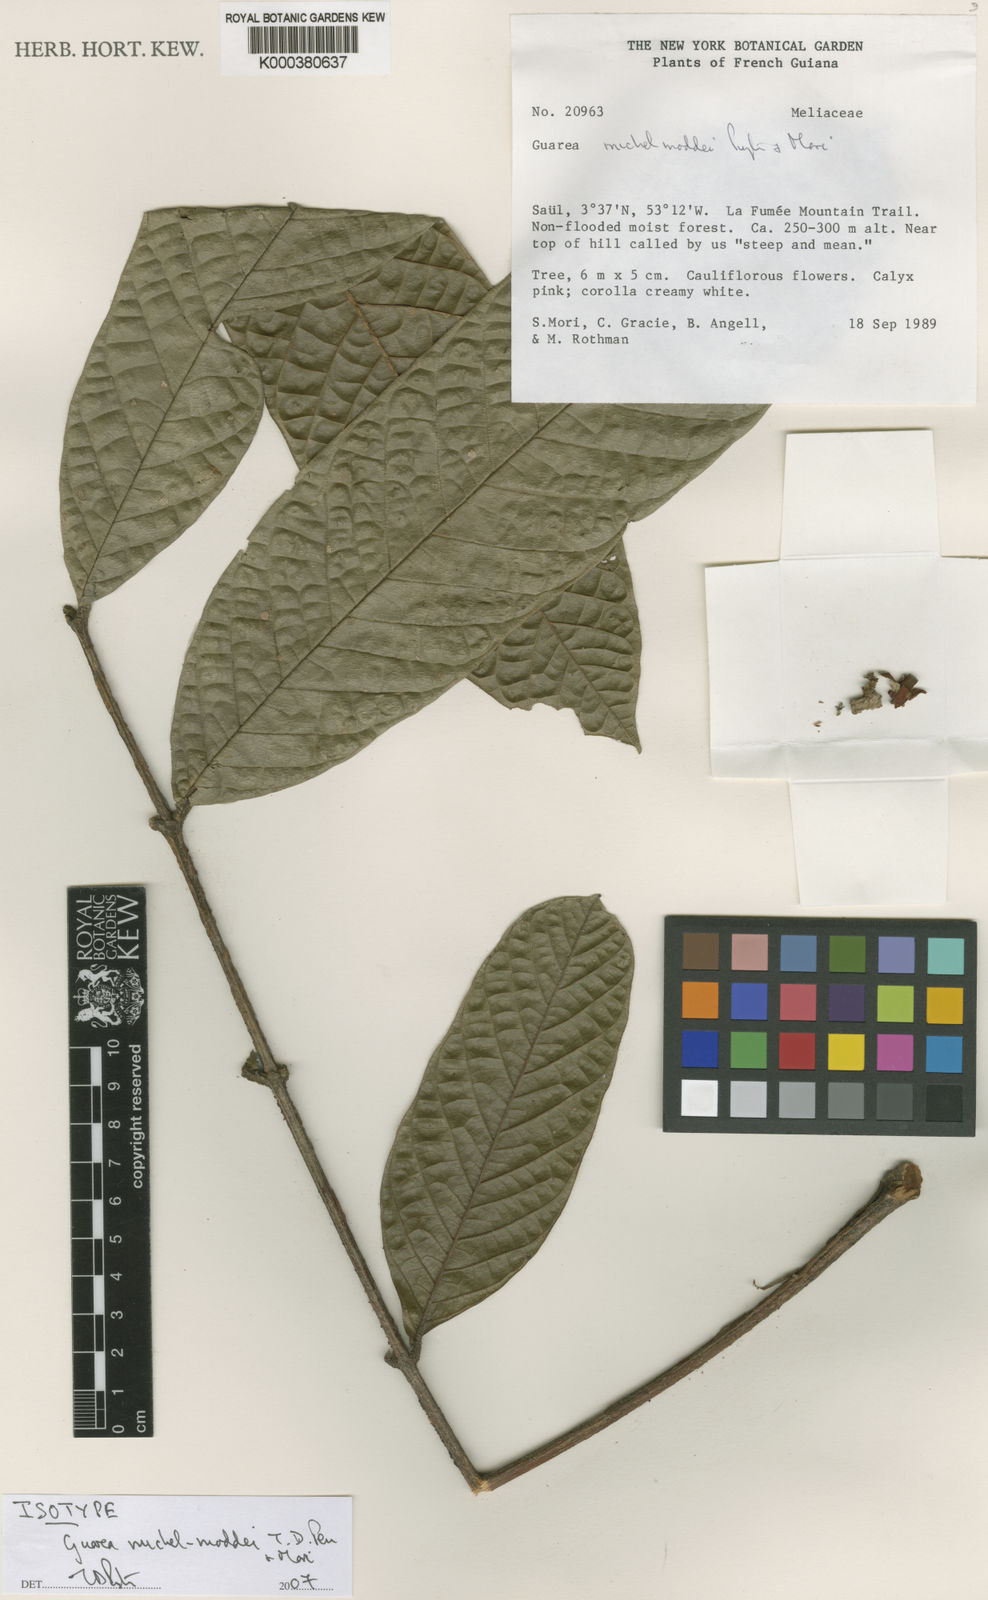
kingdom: Plantae
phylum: Tracheophyta
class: Magnoliopsida
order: Sapindales
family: Meliaceae
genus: Guarea
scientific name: Guarea michel-moddei
